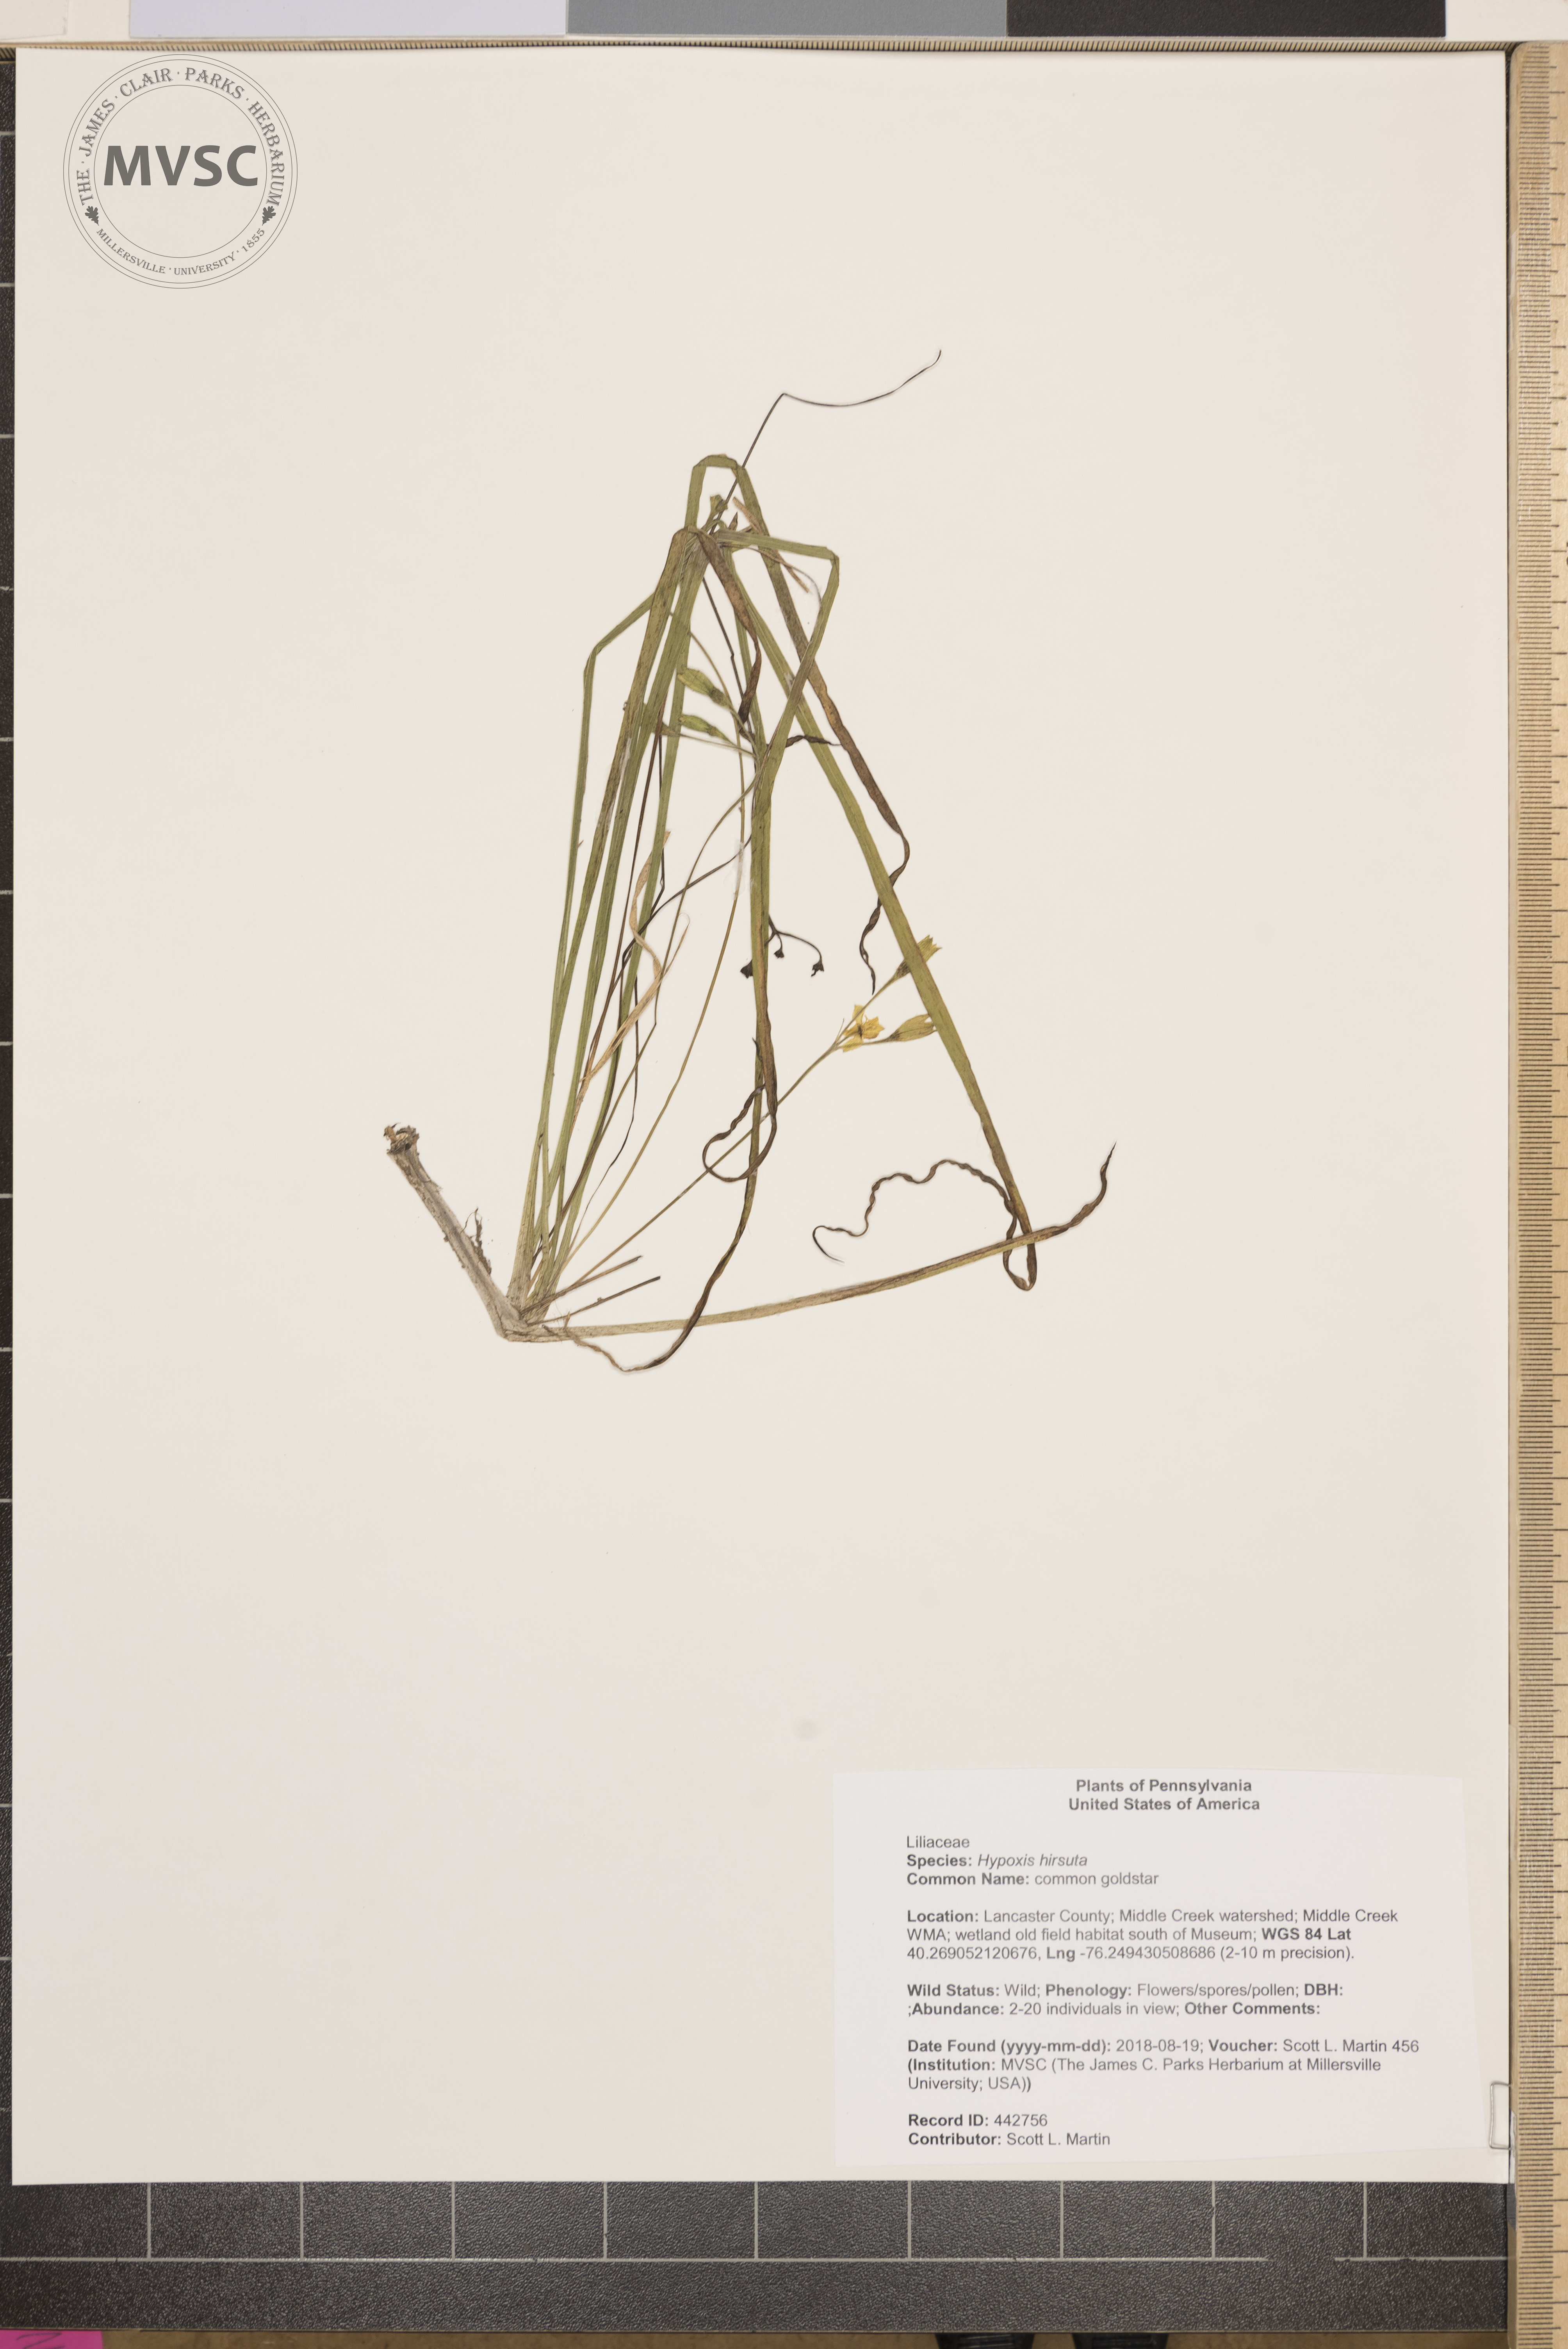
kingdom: Plantae
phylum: Tracheophyta
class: Liliopsida
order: Asparagales
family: Hypoxidaceae
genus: Hypoxis
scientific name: Hypoxis hirsuta
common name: common goldstar
